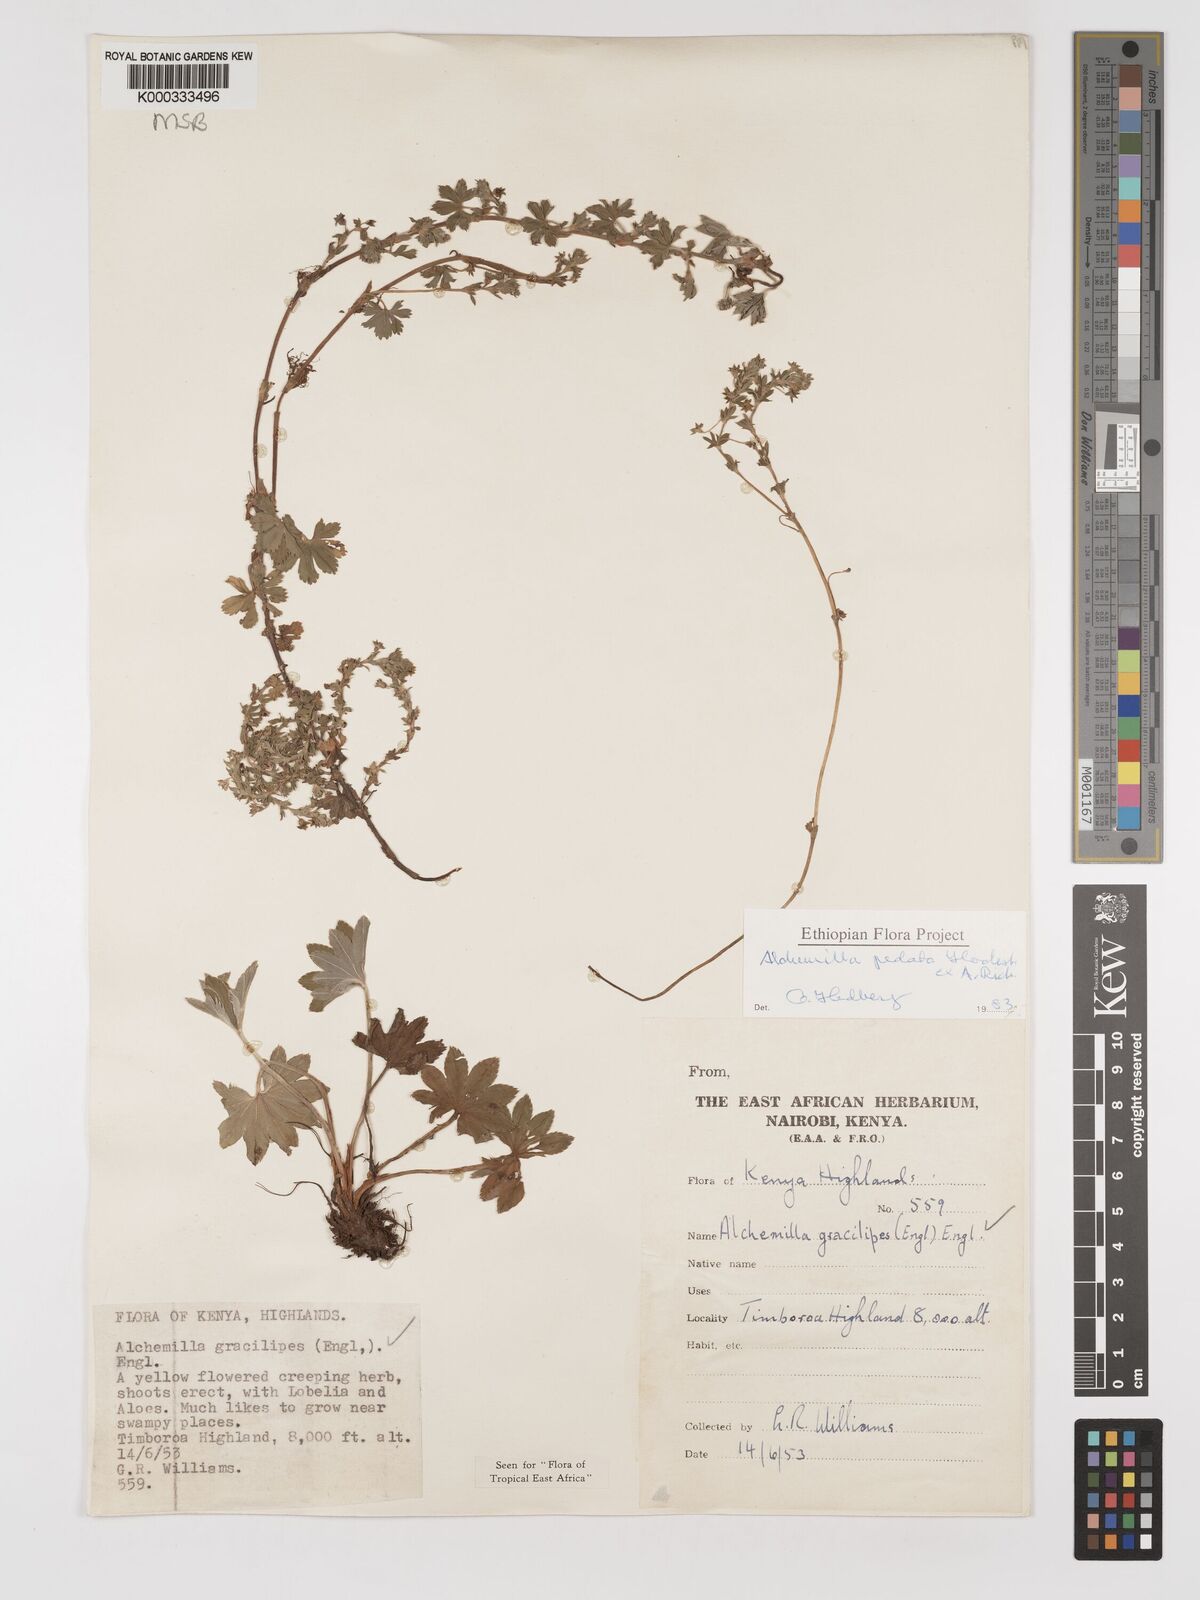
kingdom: Plantae
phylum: Tracheophyta
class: Magnoliopsida
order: Rosales
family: Rosaceae
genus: Alchemilla
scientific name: Alchemilla pedata
